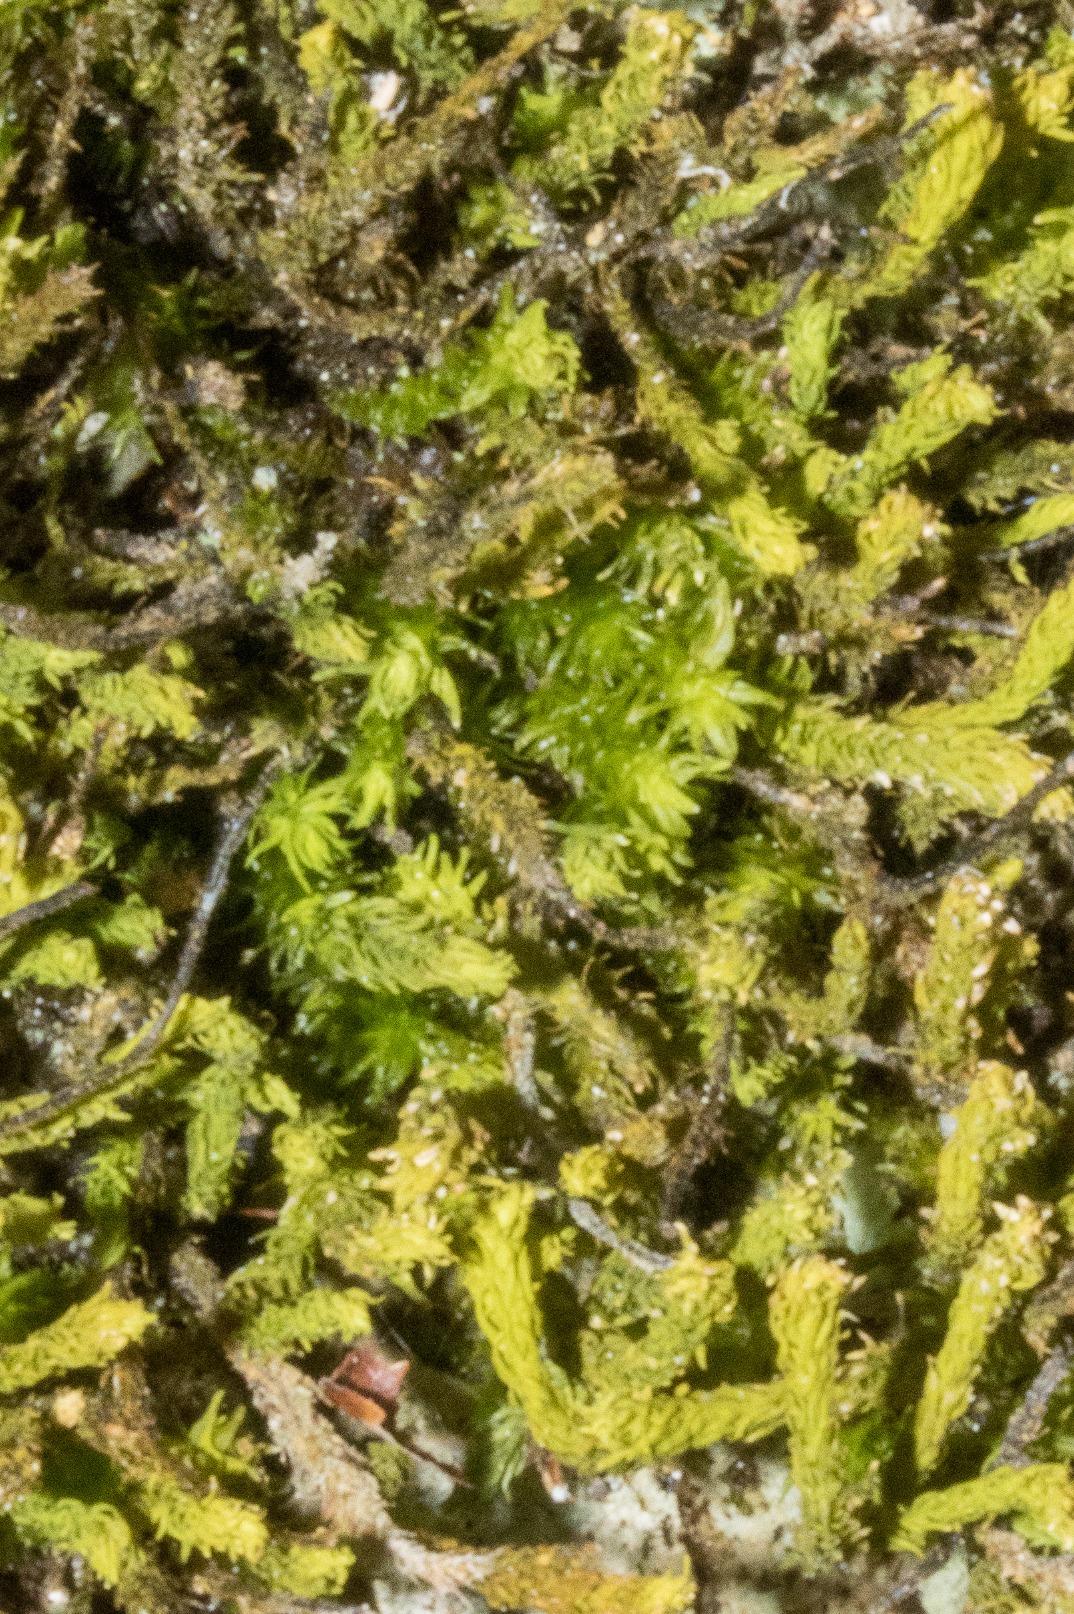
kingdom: Plantae
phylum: Bryophyta
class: Bryopsida
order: Hypnales
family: Anomodontaceae
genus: Anomodon
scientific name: Anomodon viticulosus
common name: Robust matblad
